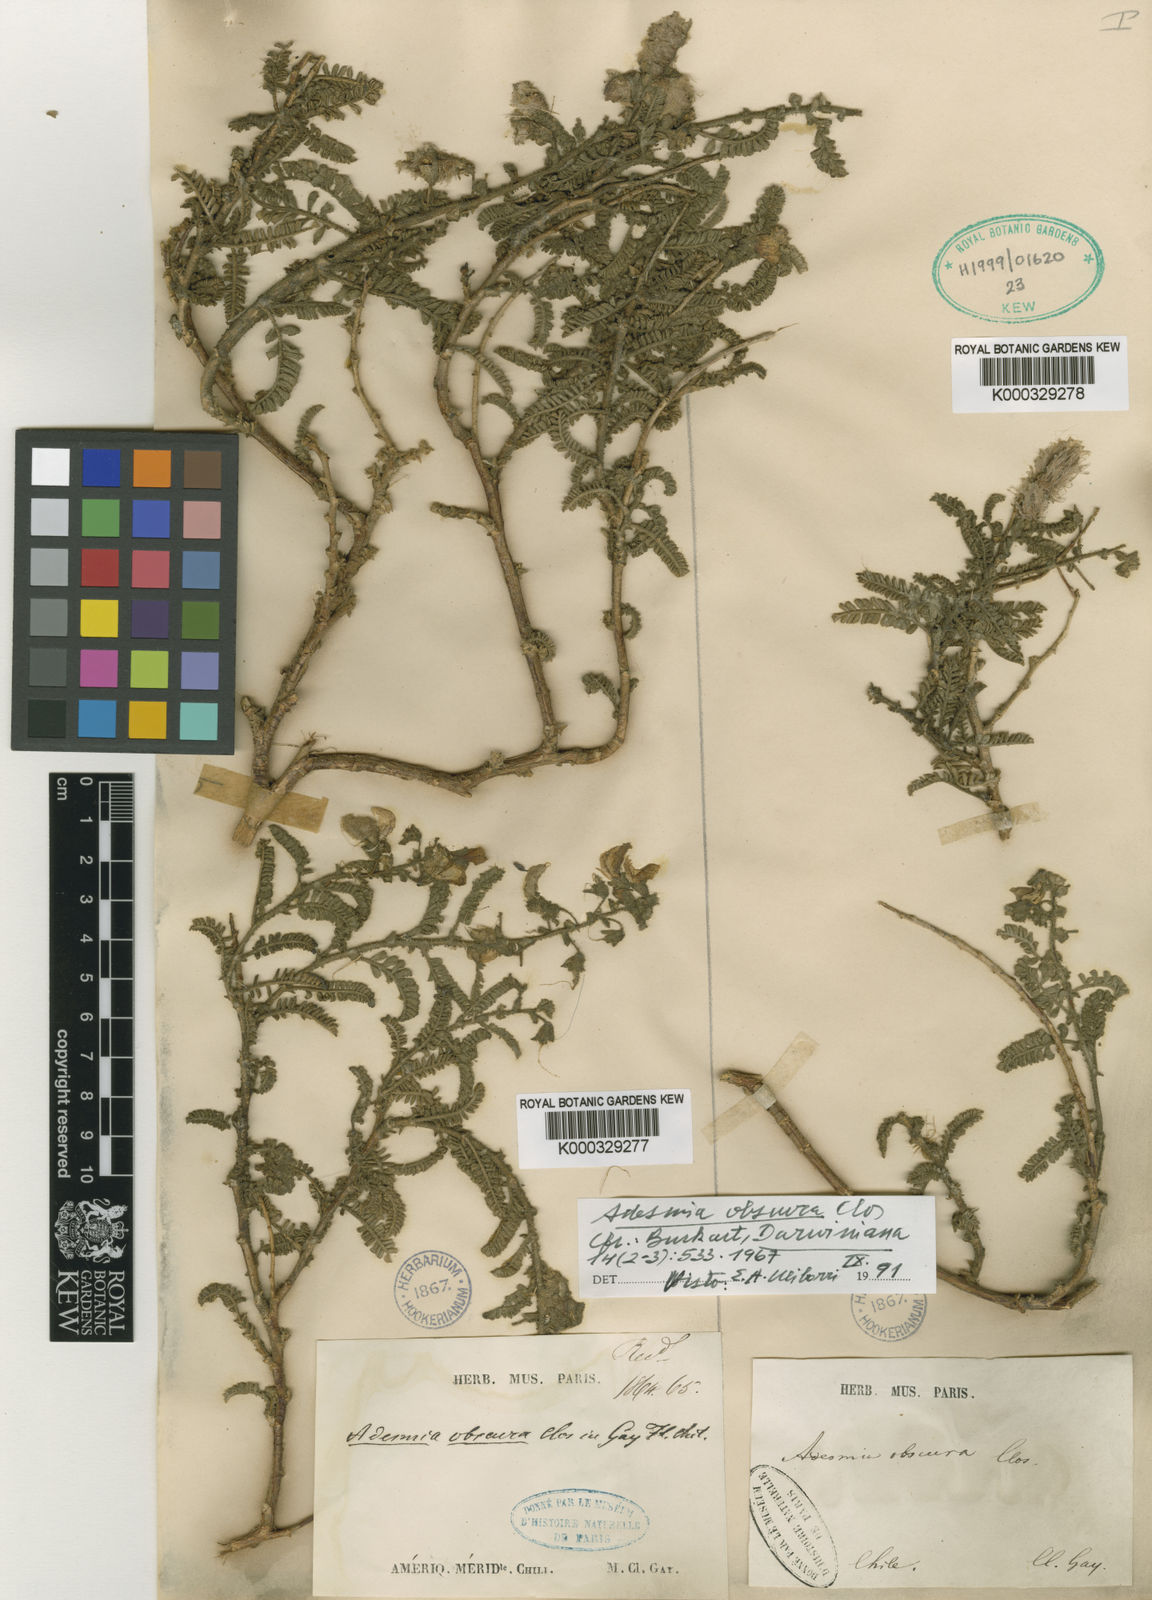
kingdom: Plantae
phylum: Tracheophyta
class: Magnoliopsida
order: Fabales
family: Fabaceae
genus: Adesmia
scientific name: Adesmia obscura
